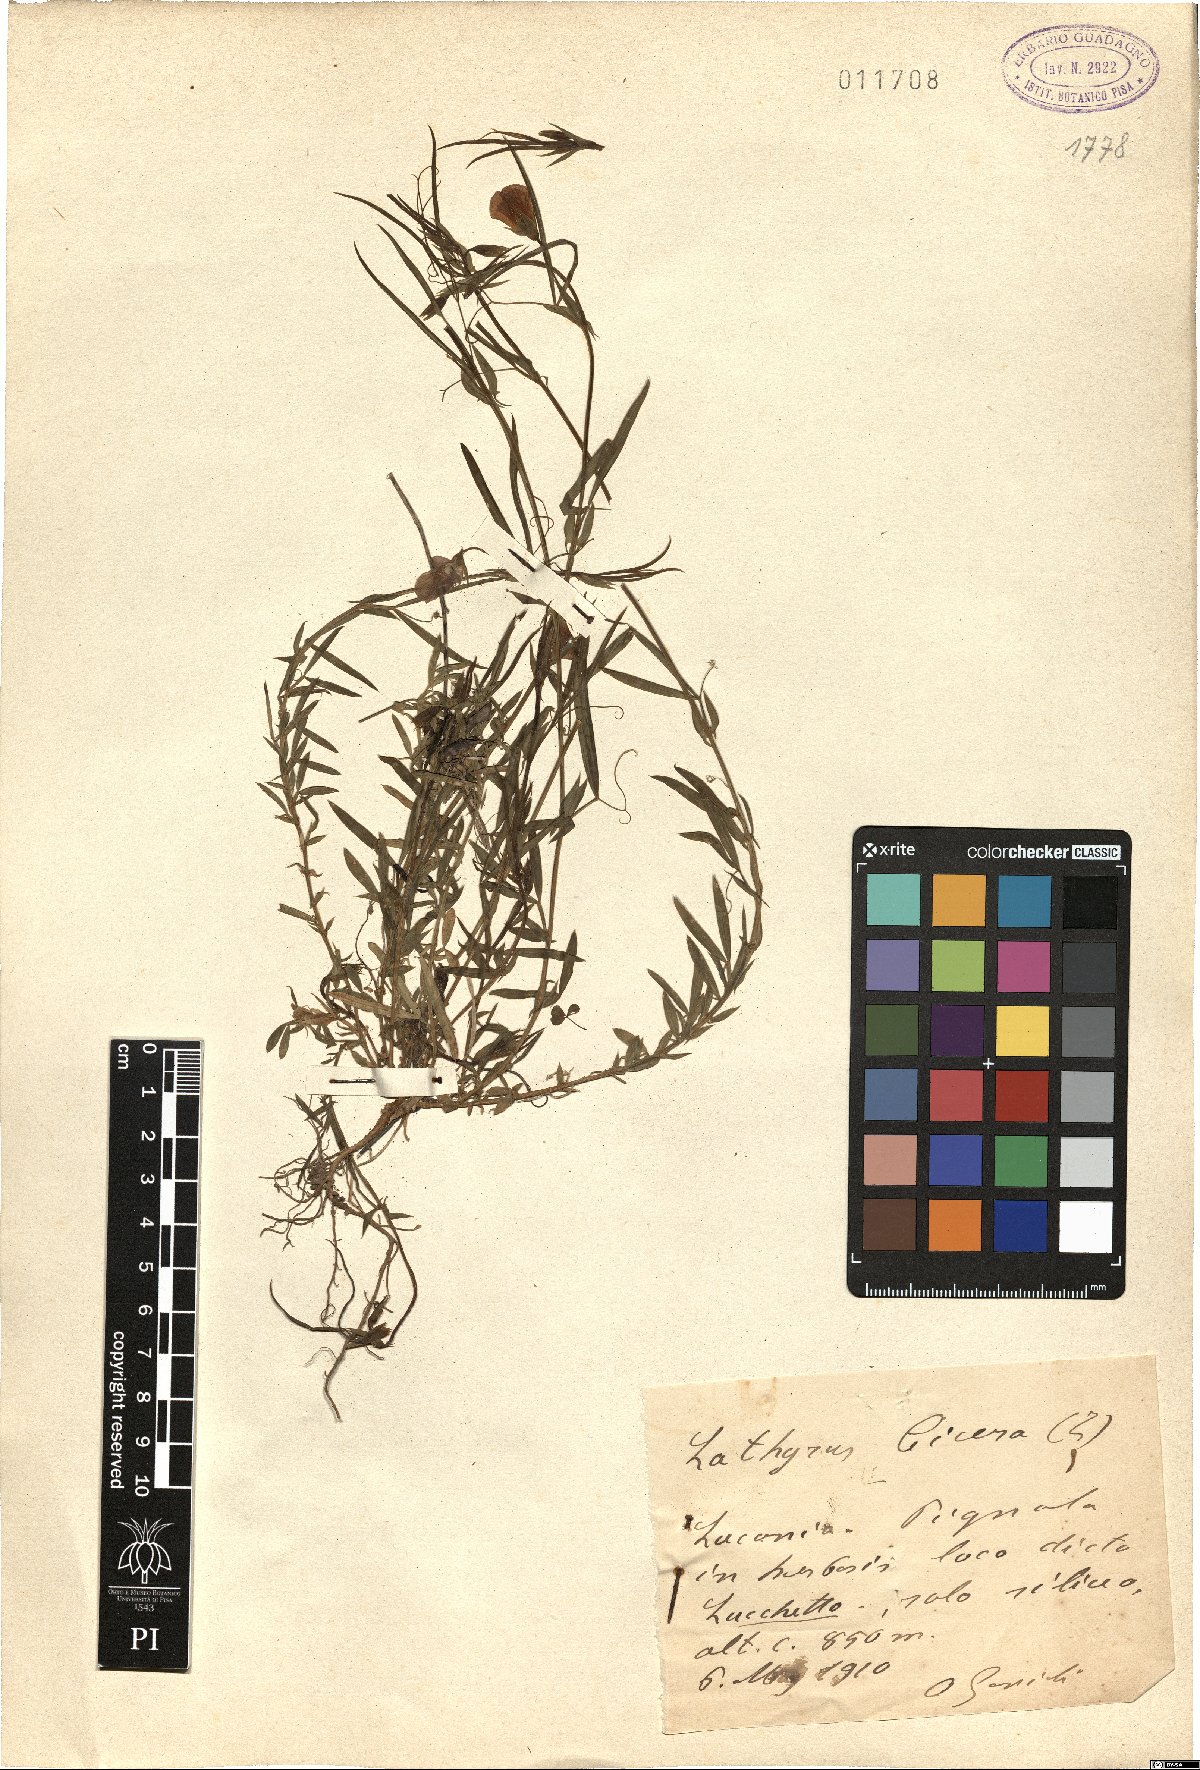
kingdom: Plantae
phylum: Tracheophyta
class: Magnoliopsida
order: Fabales
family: Fabaceae
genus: Lathyrus
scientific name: Lathyrus cicera
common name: Red vetchling
